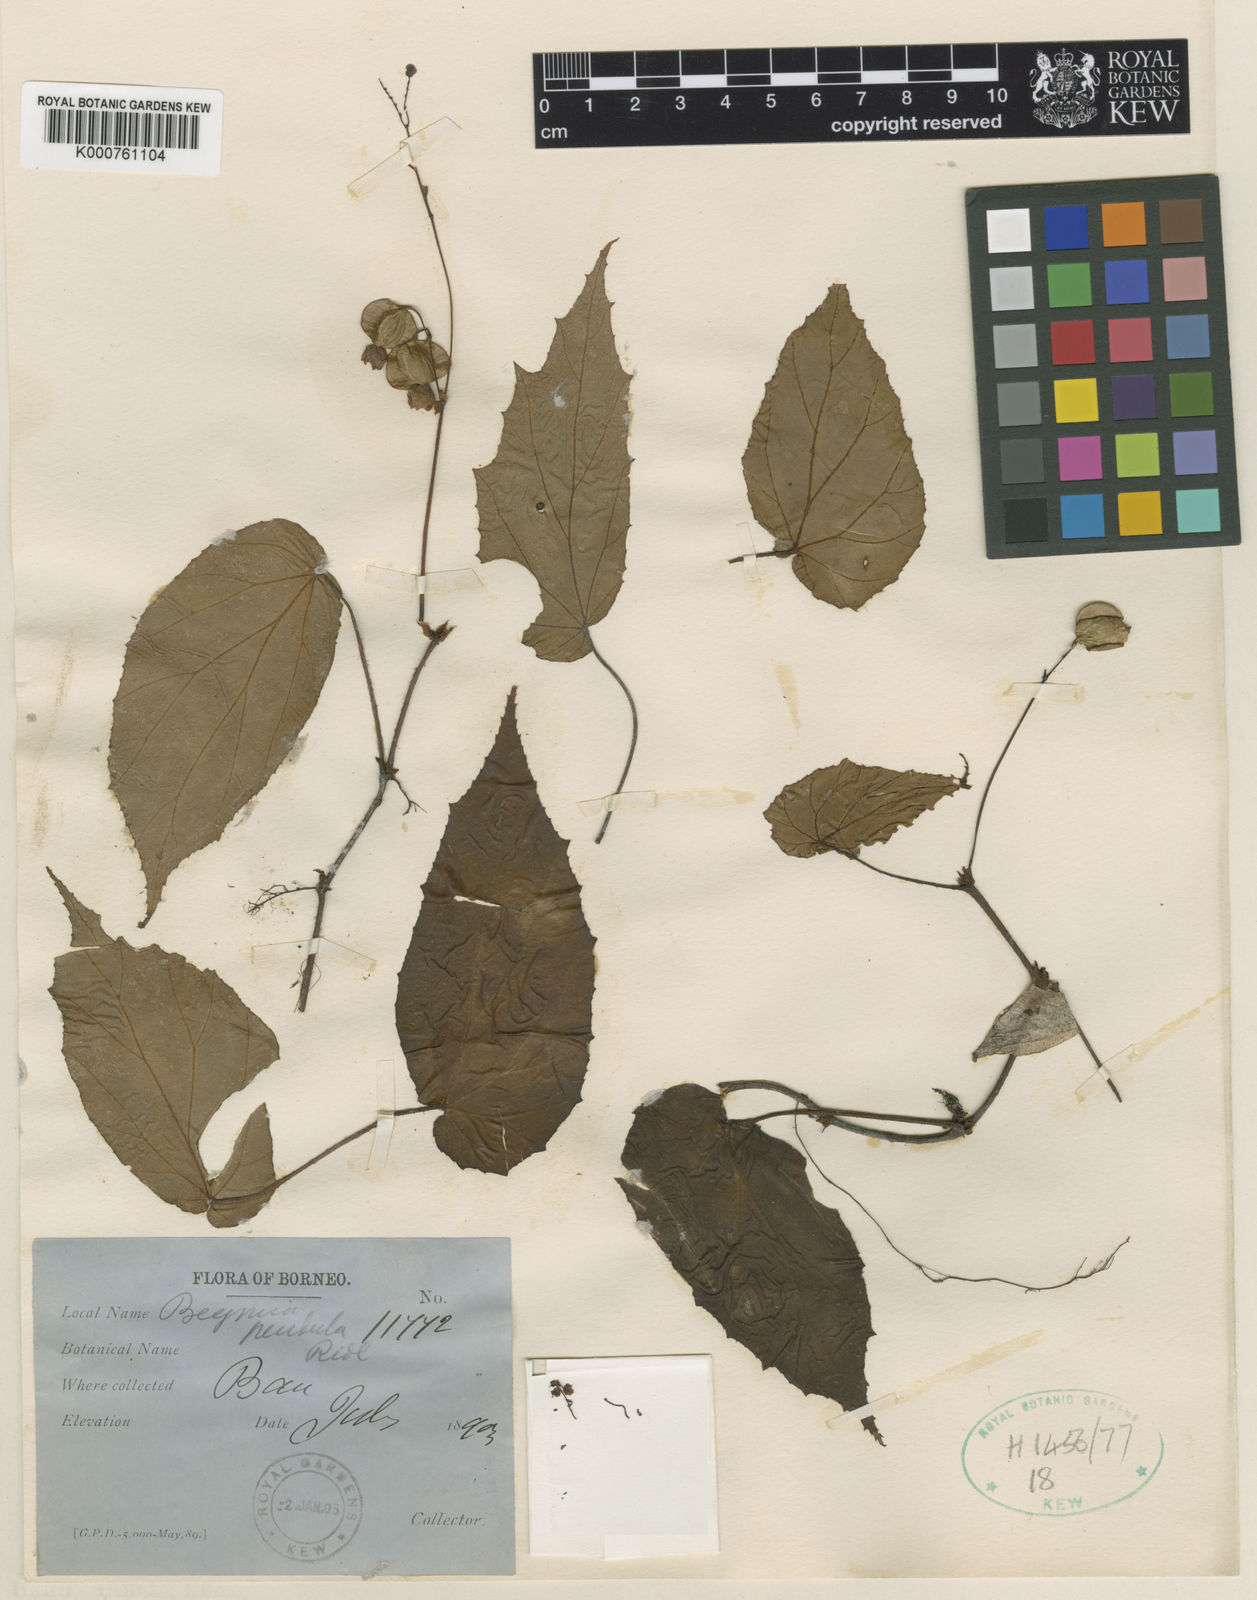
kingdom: Plantae
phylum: Tracheophyta
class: Magnoliopsida
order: Cucurbitales
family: Begoniaceae
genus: Begonia
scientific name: Begonia pendula
